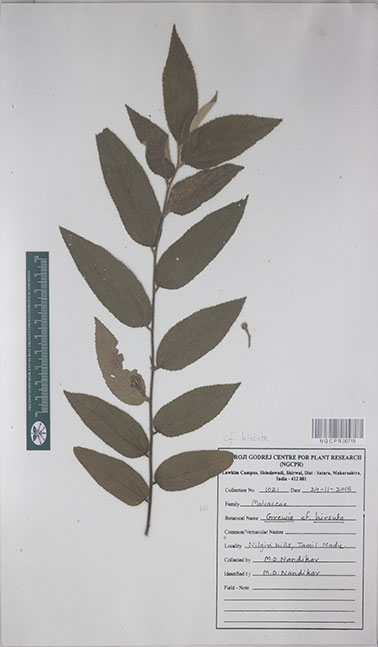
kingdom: Plantae
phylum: Tracheophyta
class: Magnoliopsida
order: Malvales
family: Malvaceae
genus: Grewia
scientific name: Grewia hirsuta
